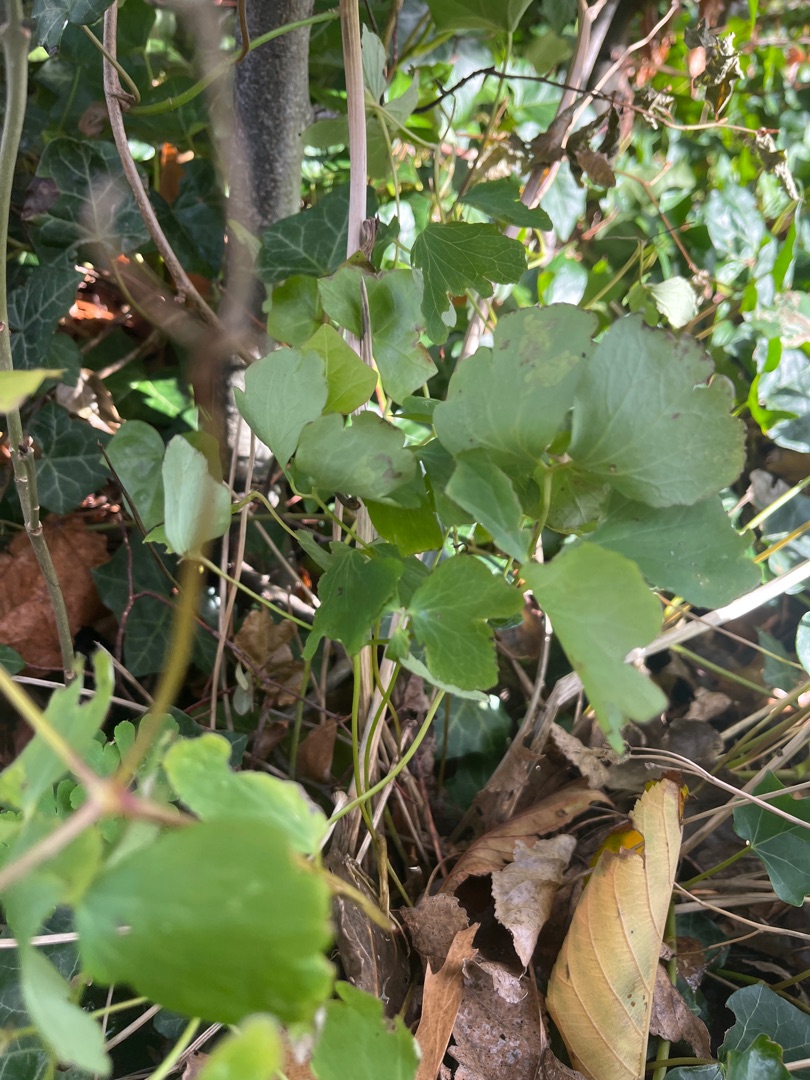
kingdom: Plantae
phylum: Tracheophyta
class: Magnoliopsida
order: Ranunculales
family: Ranunculaceae
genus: Aquilegia
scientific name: Aquilegia vulgaris
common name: Akeleje
